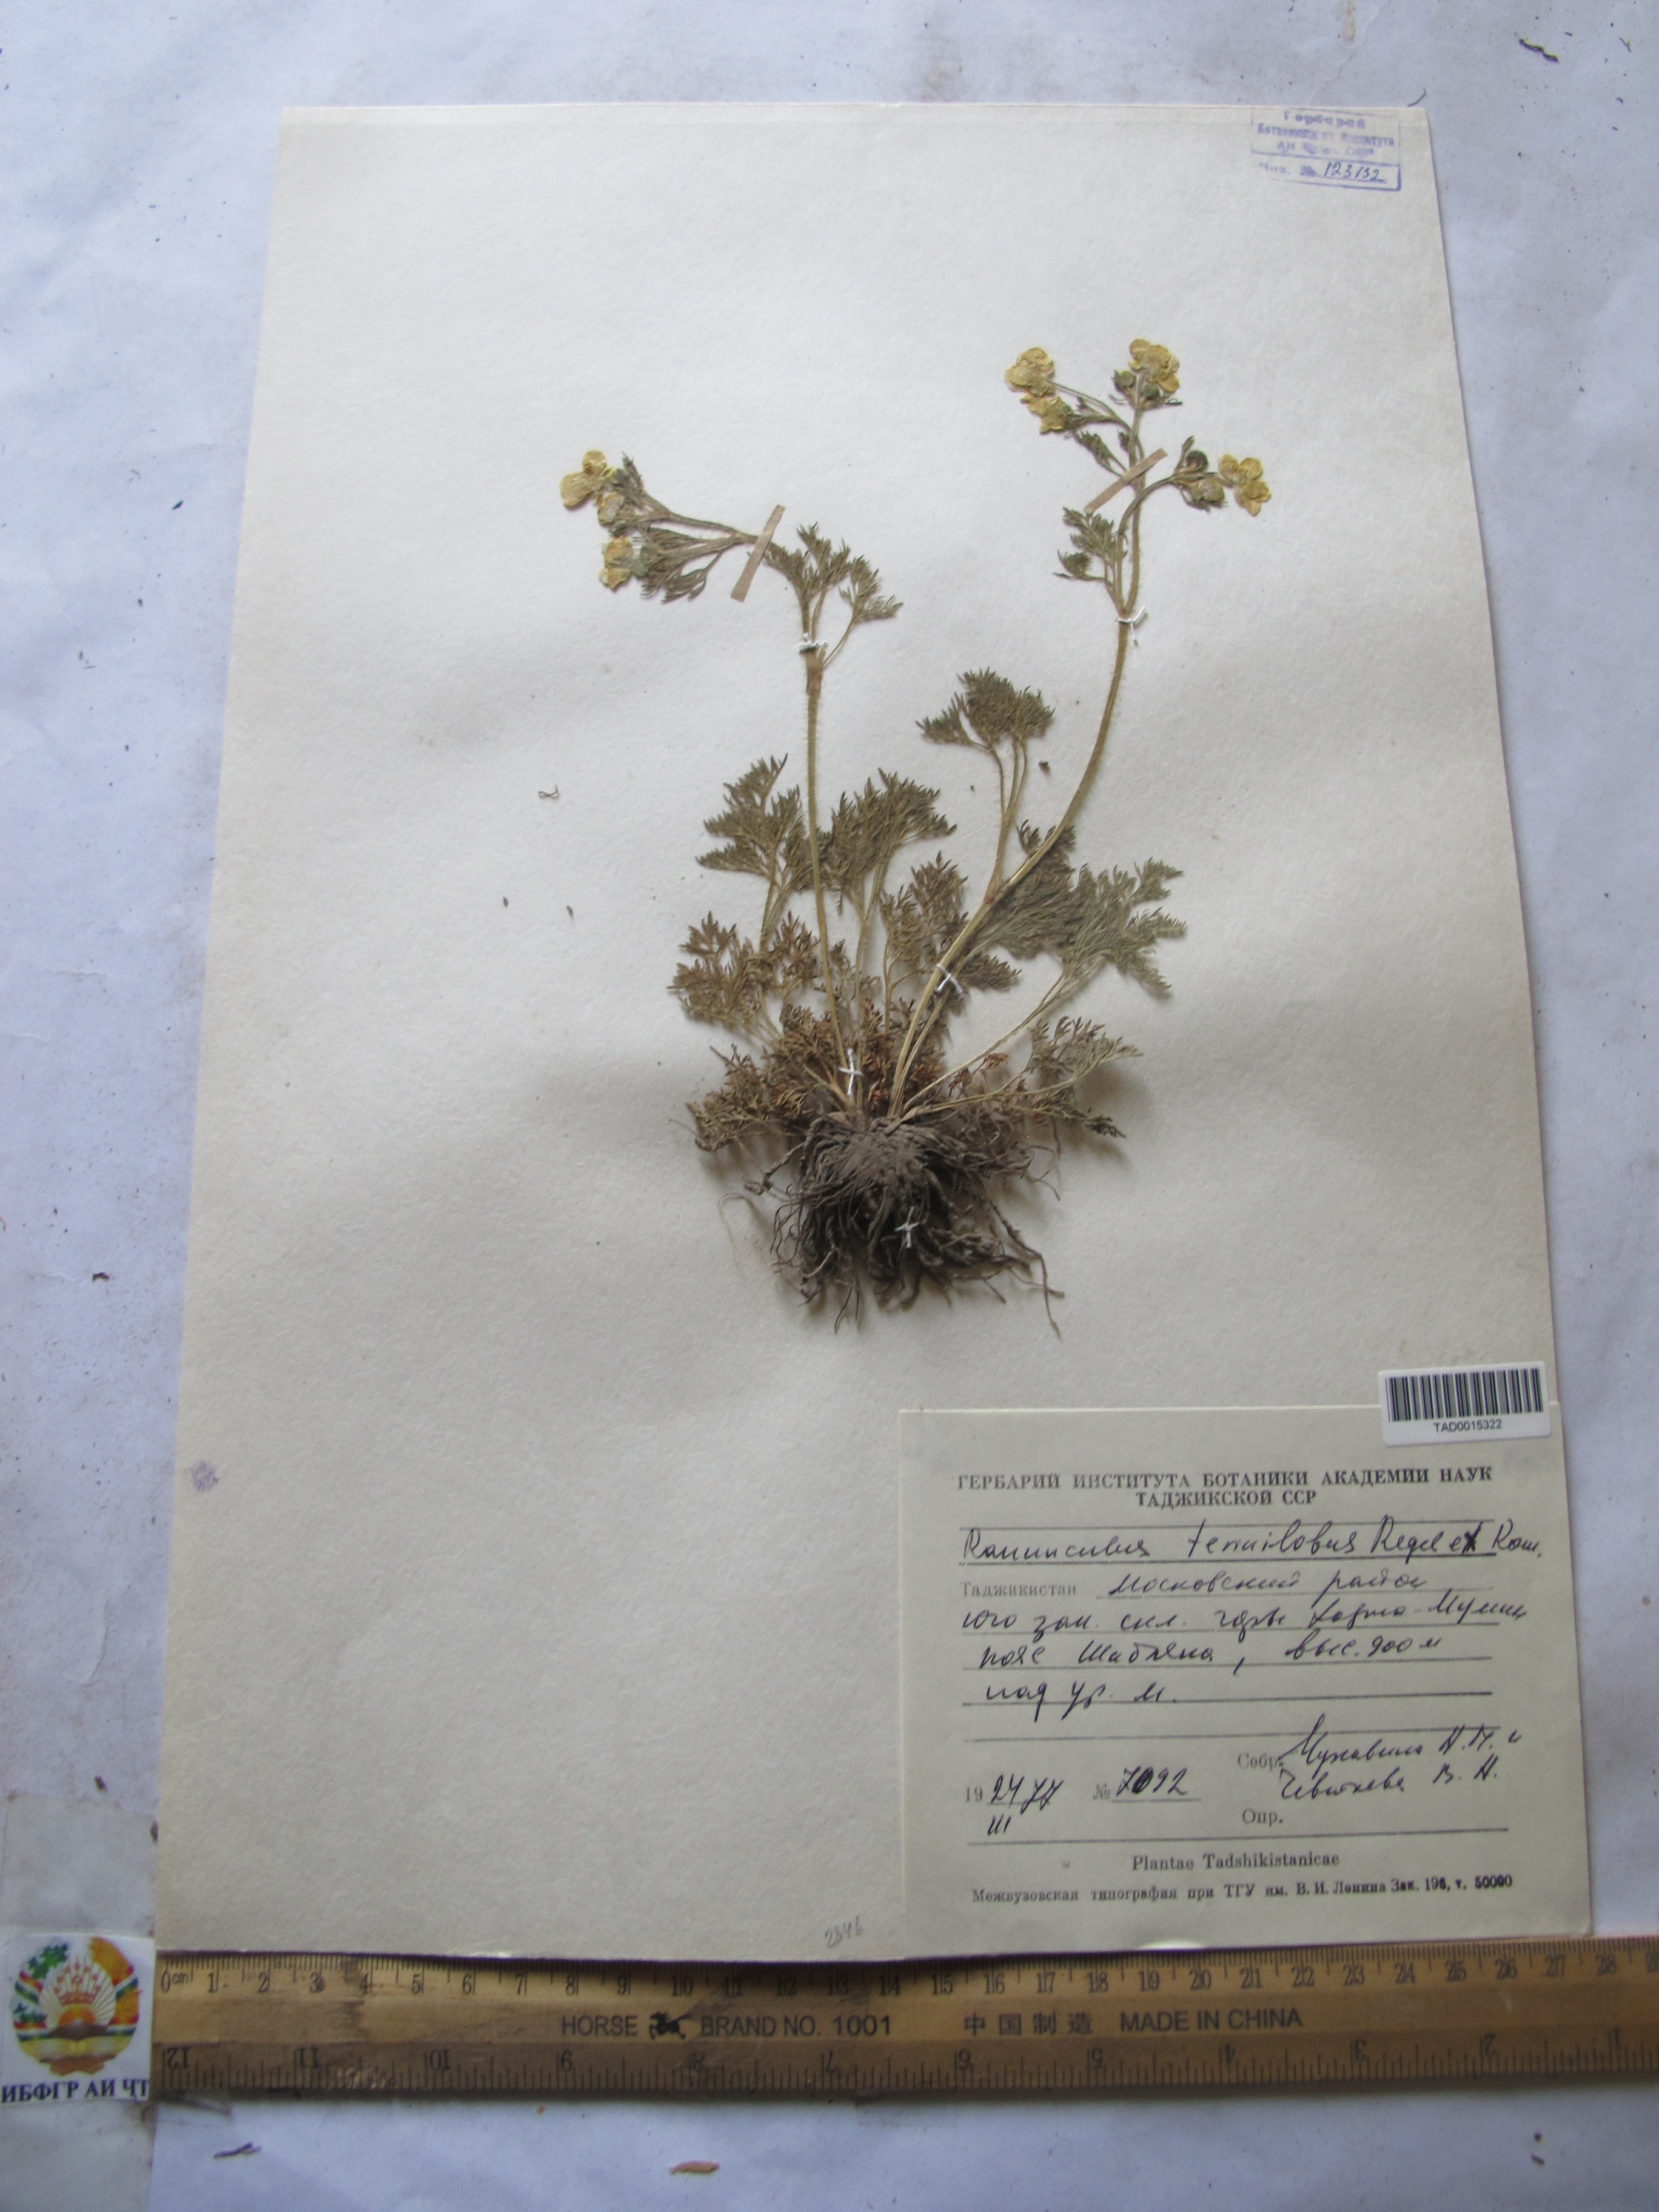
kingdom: Plantae
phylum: Tracheophyta
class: Magnoliopsida
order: Ranunculales
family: Ranunculaceae
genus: Ranunculus
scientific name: Ranunculus tenuilobus
